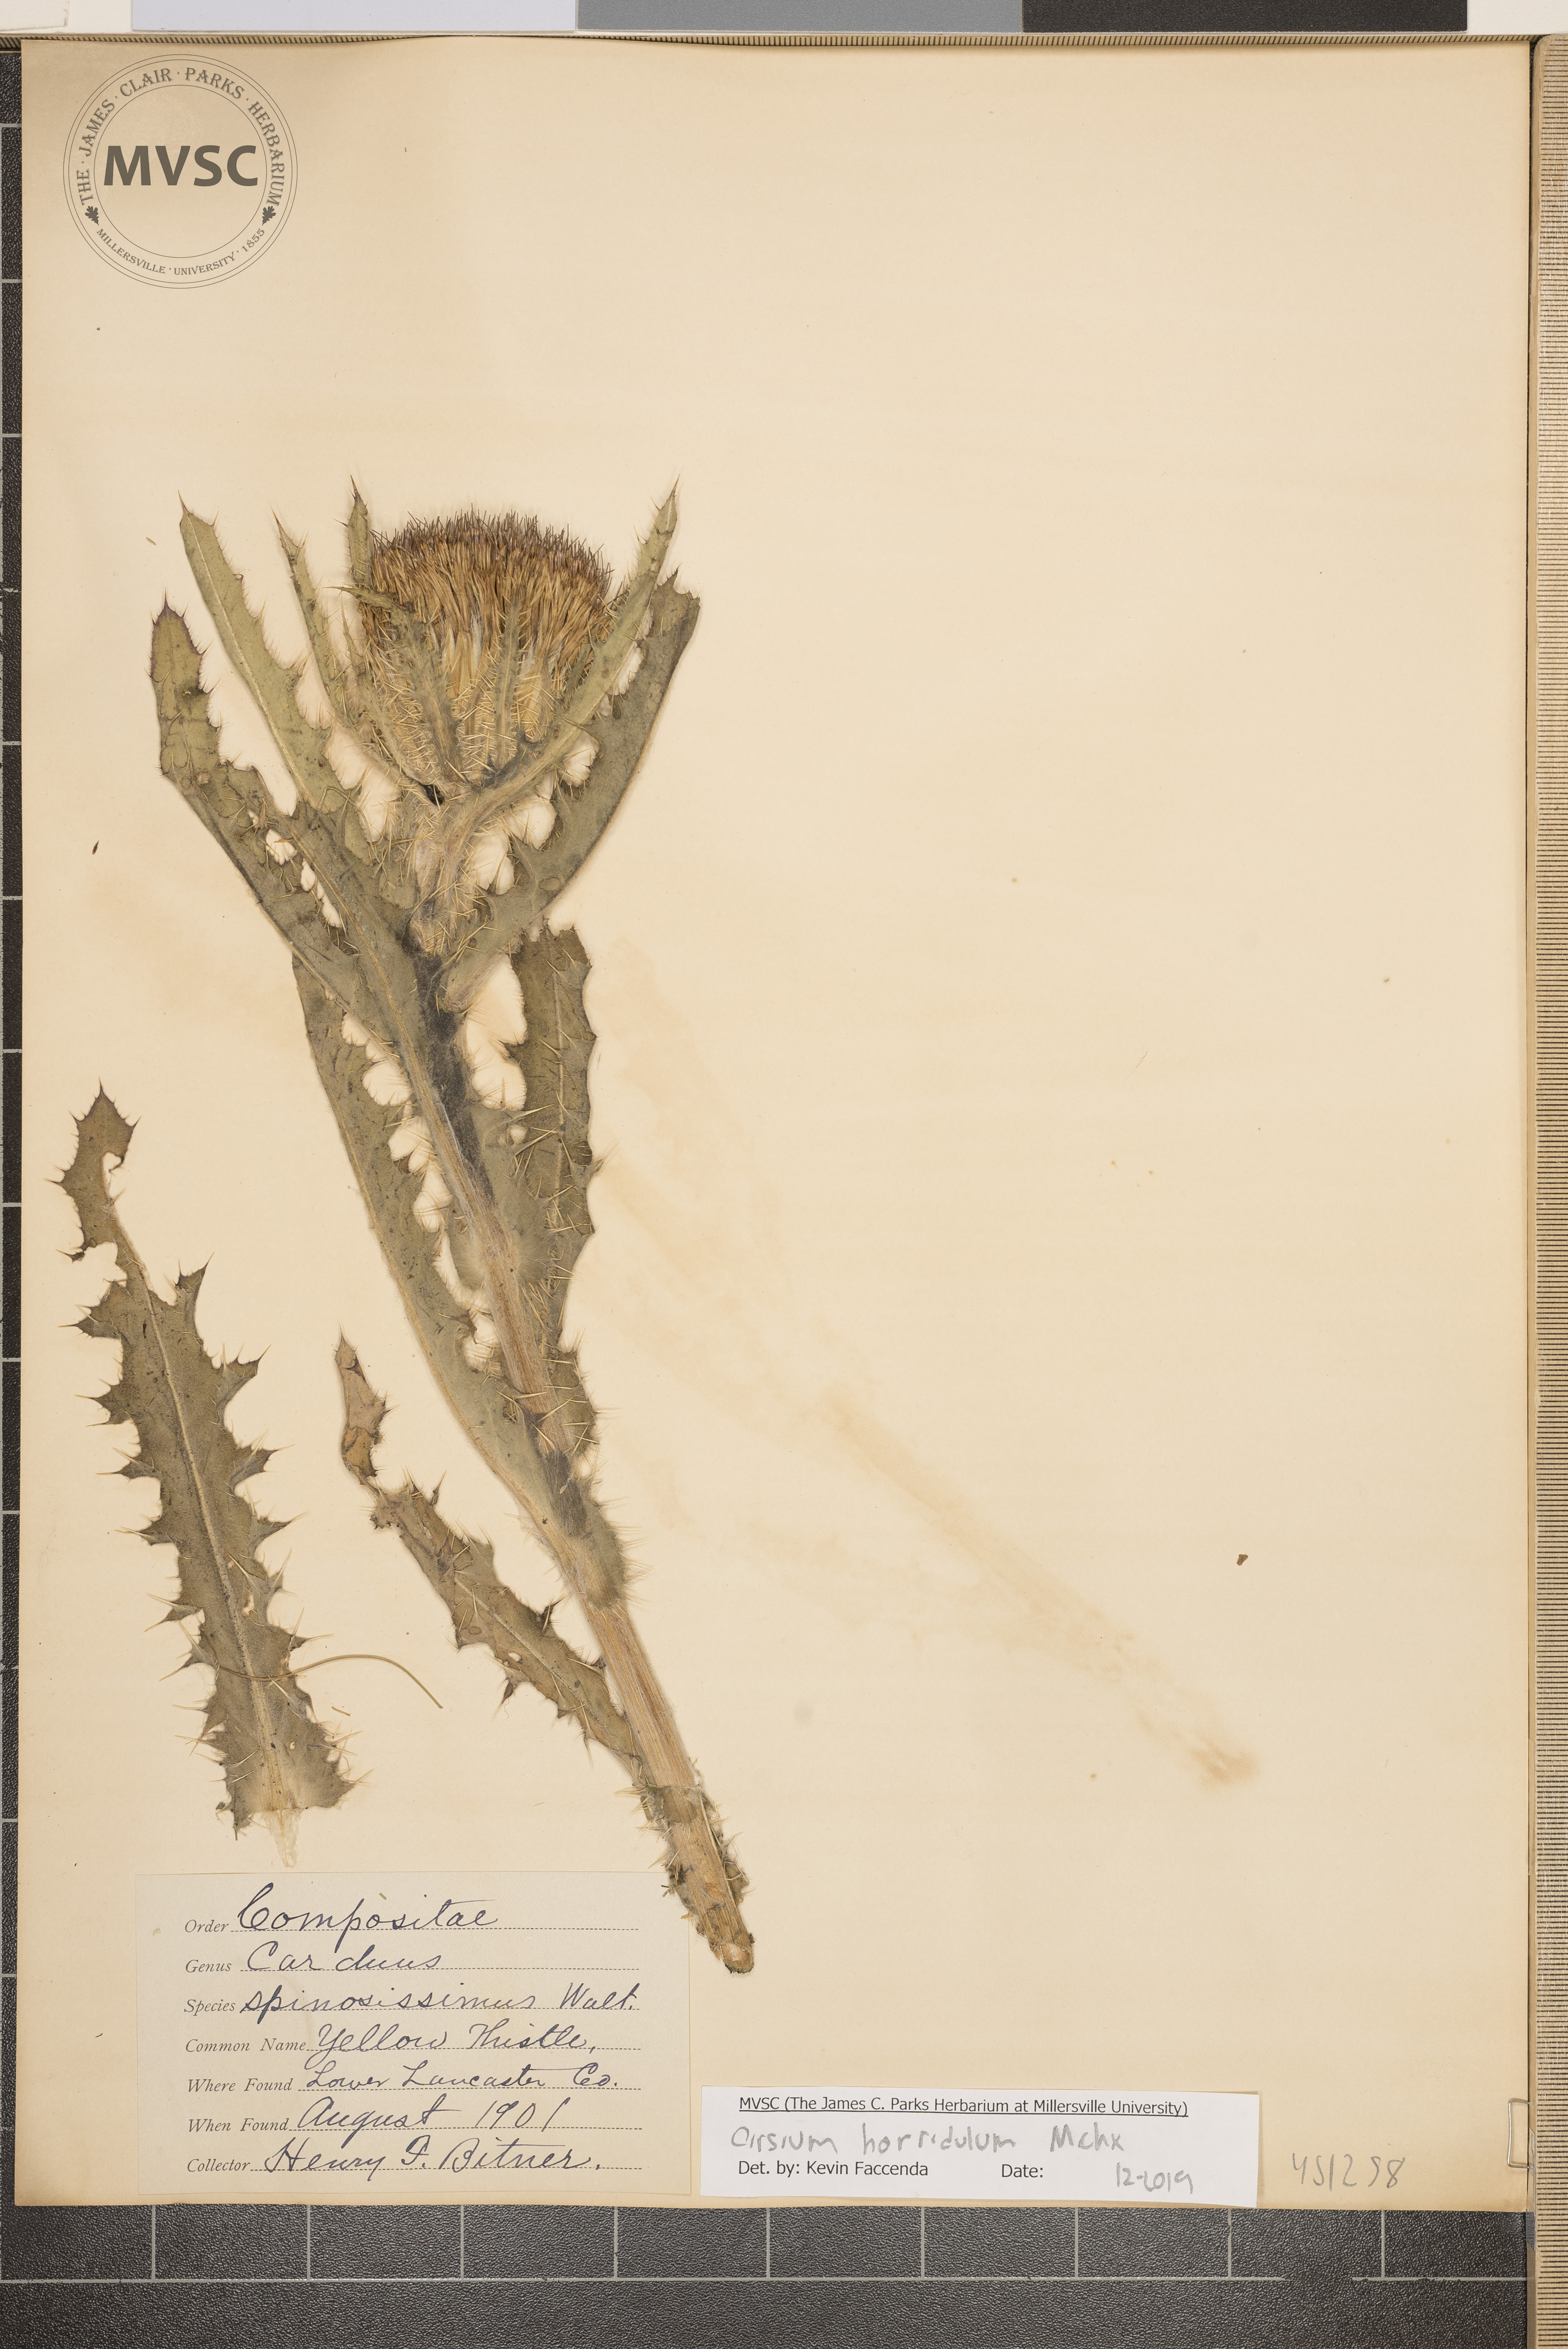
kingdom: Plantae
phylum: Tracheophyta
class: Magnoliopsida
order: Asterales
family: Asteraceae
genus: Cirsium
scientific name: Cirsium horridulum
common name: Bristly thistle
